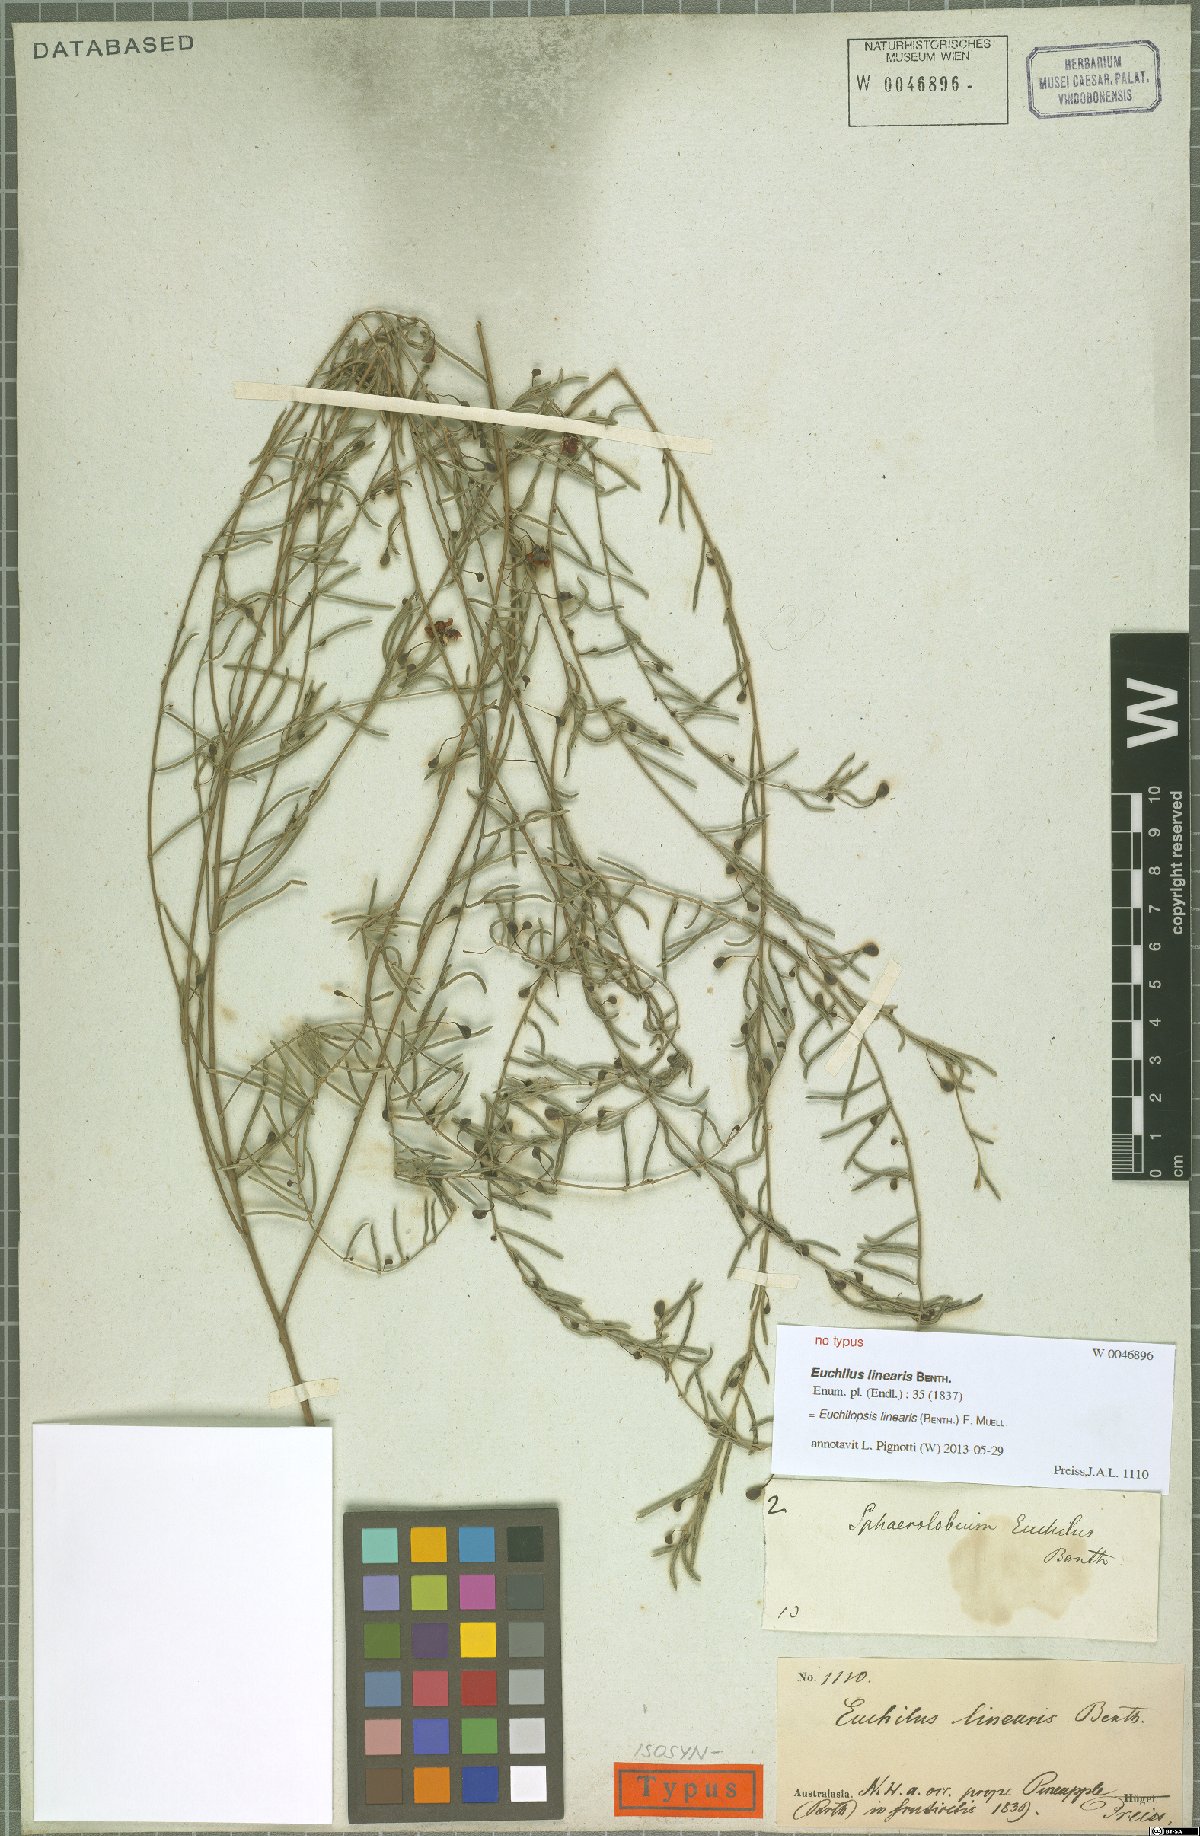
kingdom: Plantae
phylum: Tracheophyta
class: Magnoliopsida
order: Fabales
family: Fabaceae
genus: Euchilopsis
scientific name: Euchilopsis linearis
